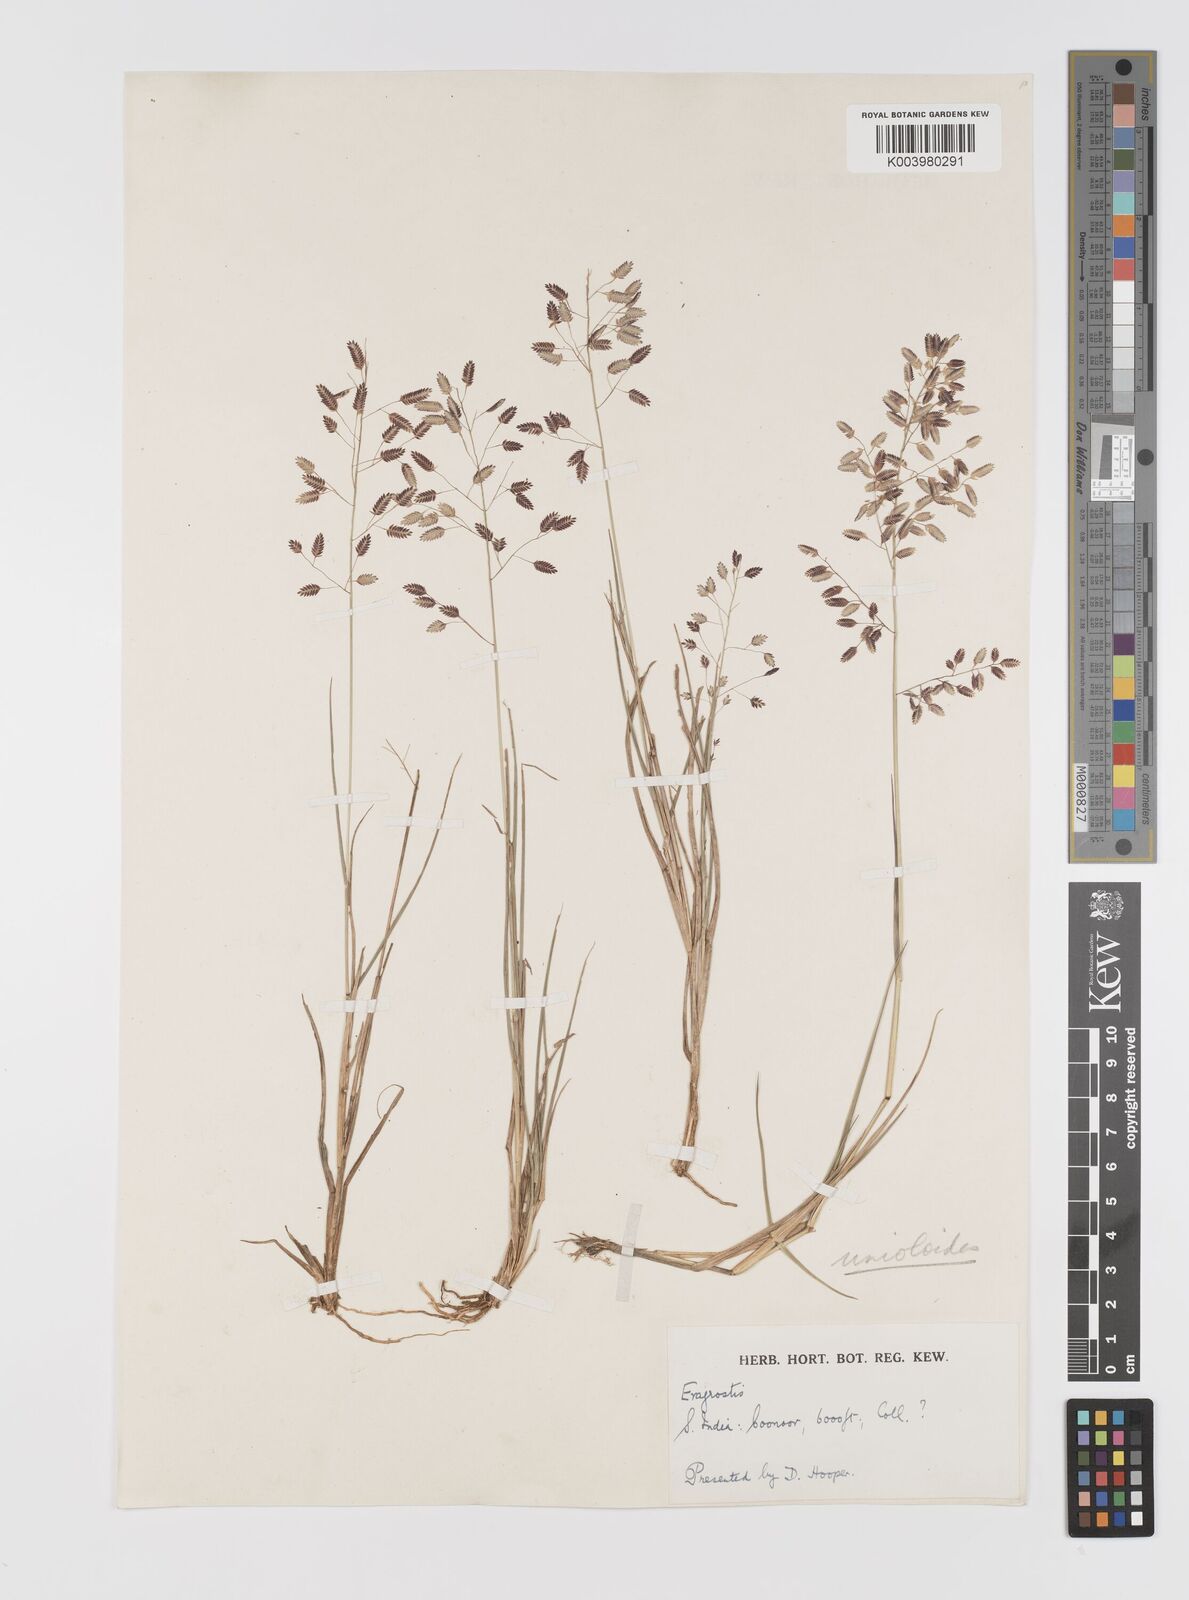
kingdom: Plantae
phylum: Tracheophyta
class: Liliopsida
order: Poales
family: Poaceae
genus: Eragrostis
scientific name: Eragrostis unioloides
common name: Chinese lovegrass
